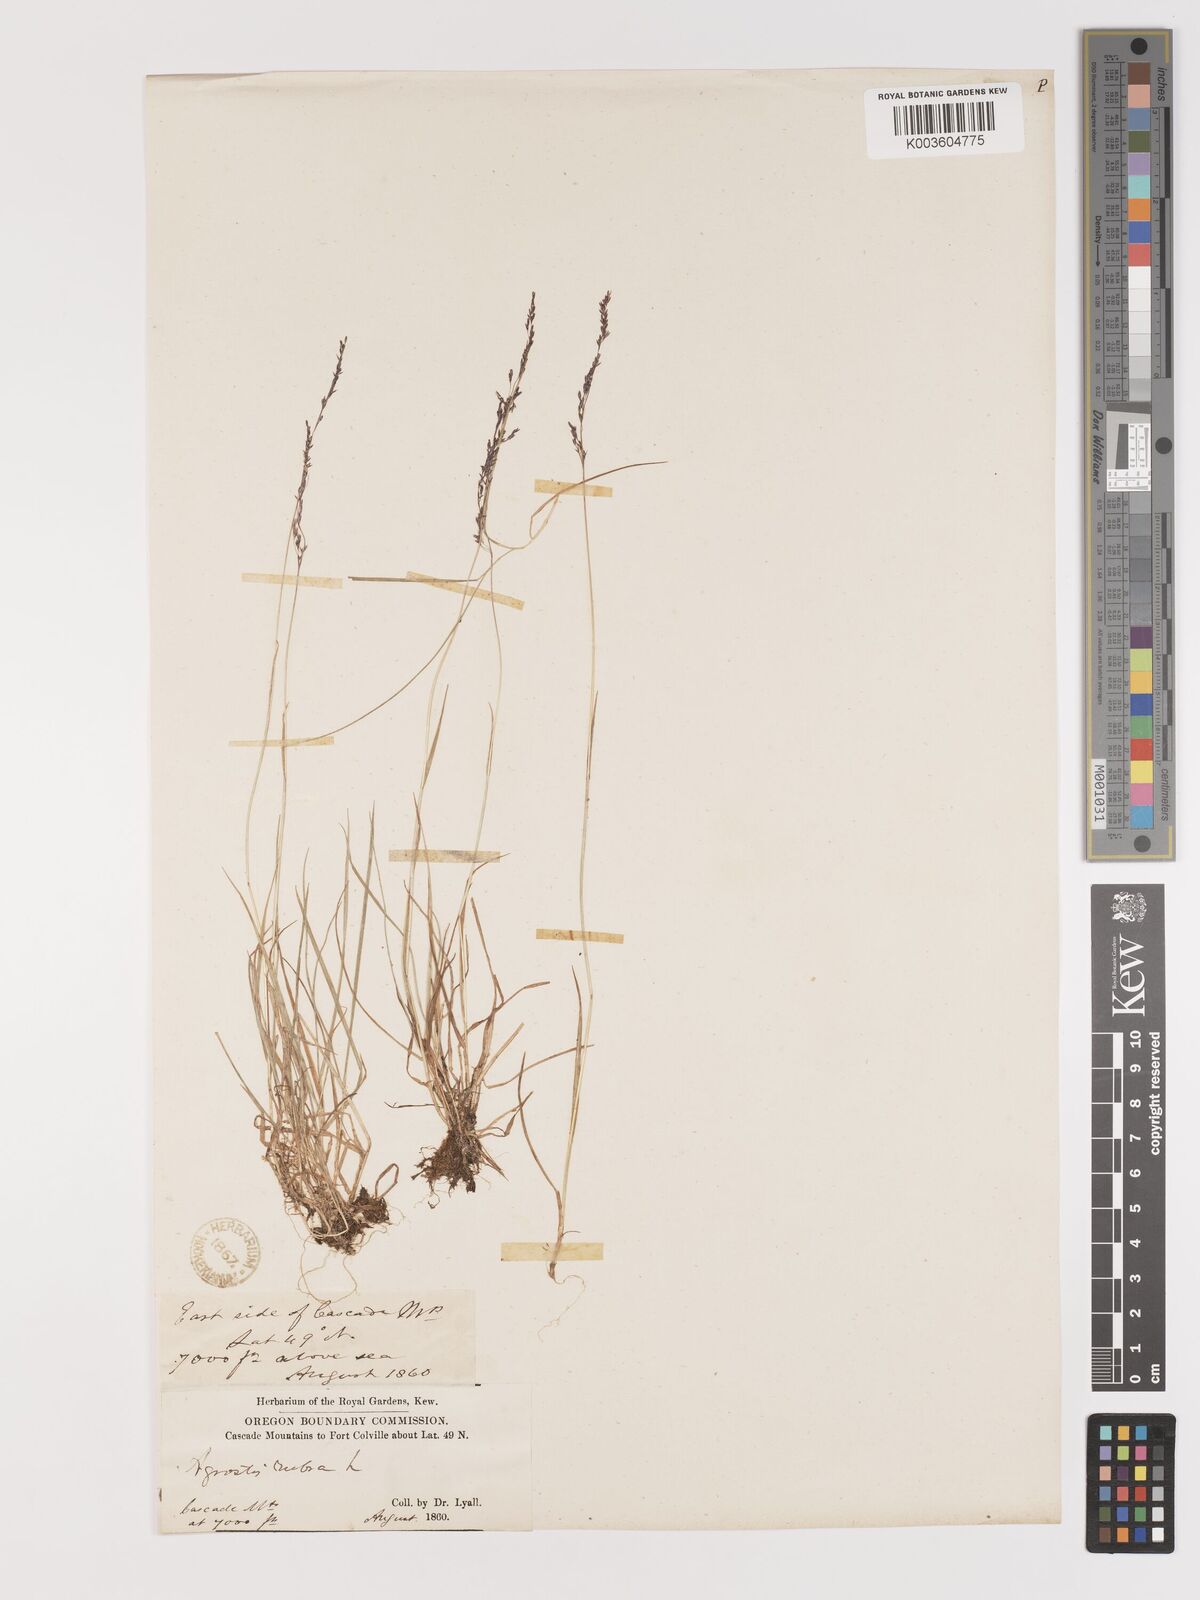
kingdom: Plantae
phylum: Tracheophyta
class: Liliopsida
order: Poales
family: Poaceae
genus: Agrostis
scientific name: Agrostis canina
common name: Velvet bent
